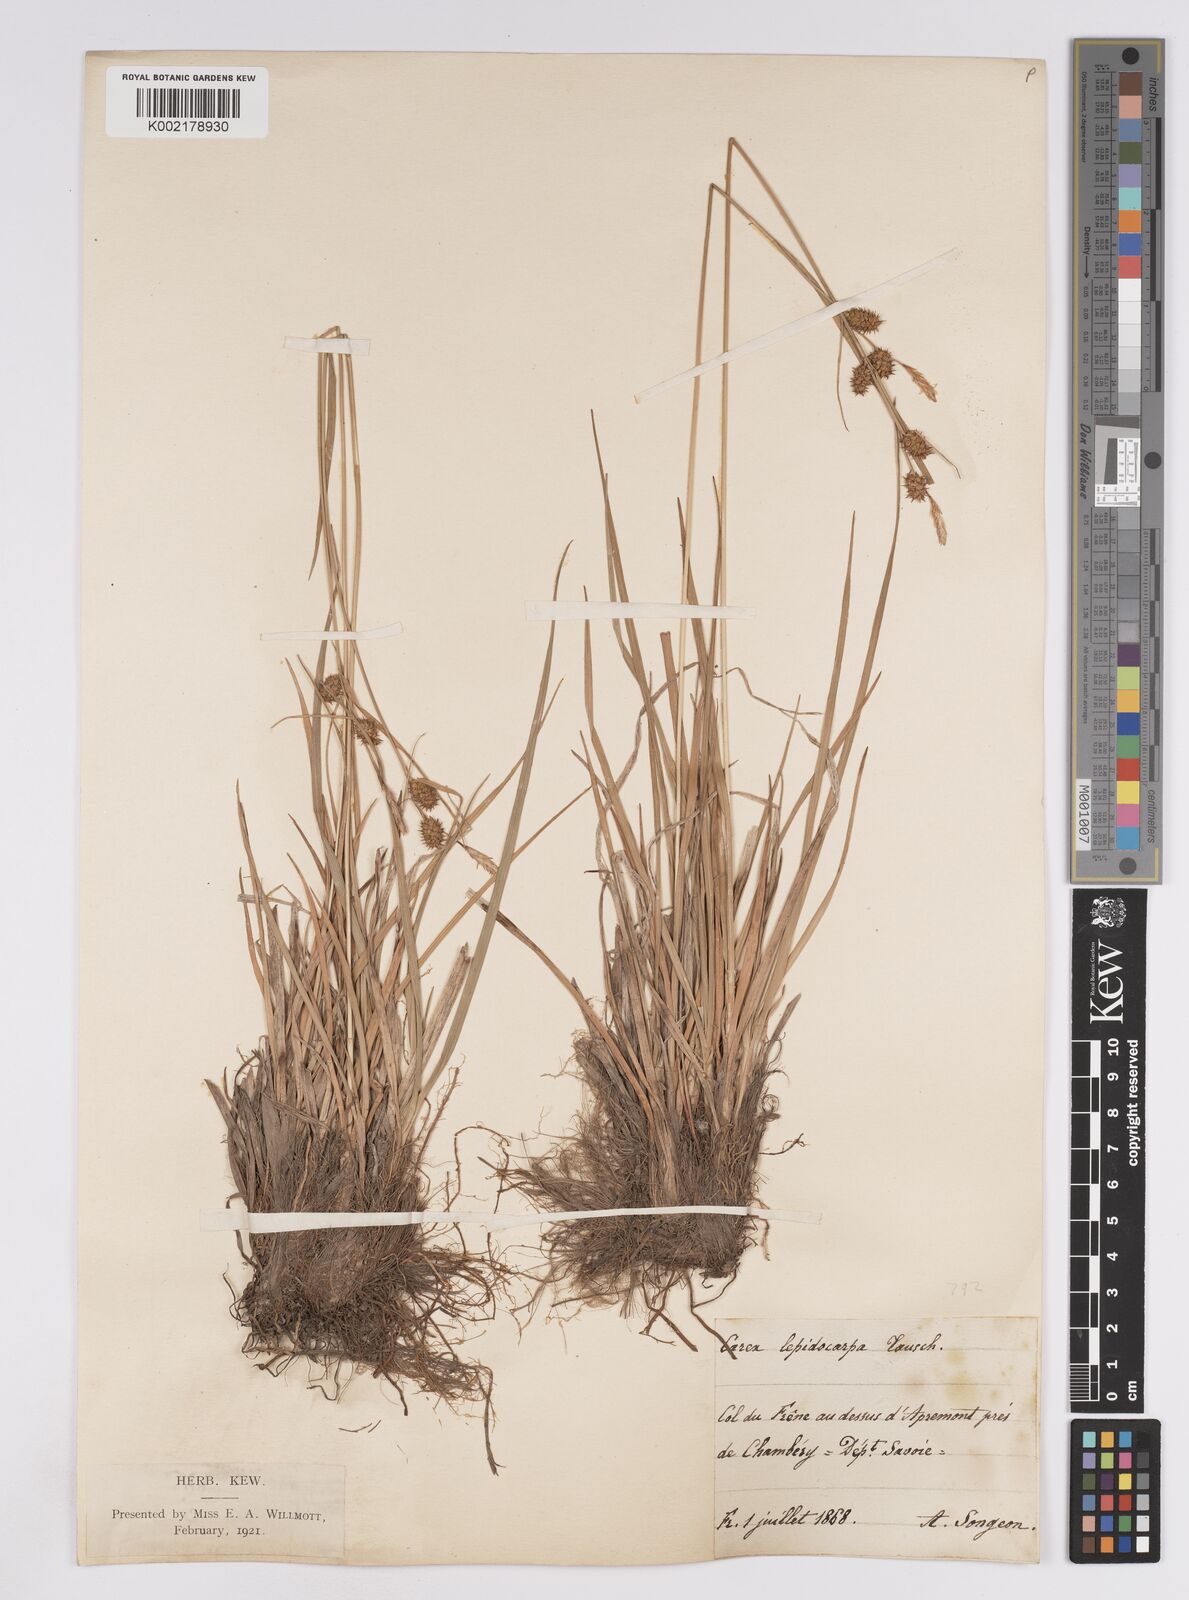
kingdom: Plantae
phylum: Tracheophyta
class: Liliopsida
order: Poales
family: Cyperaceae
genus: Carex
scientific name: Carex lepidocarpa
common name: Long-stalked yellow-sedge
